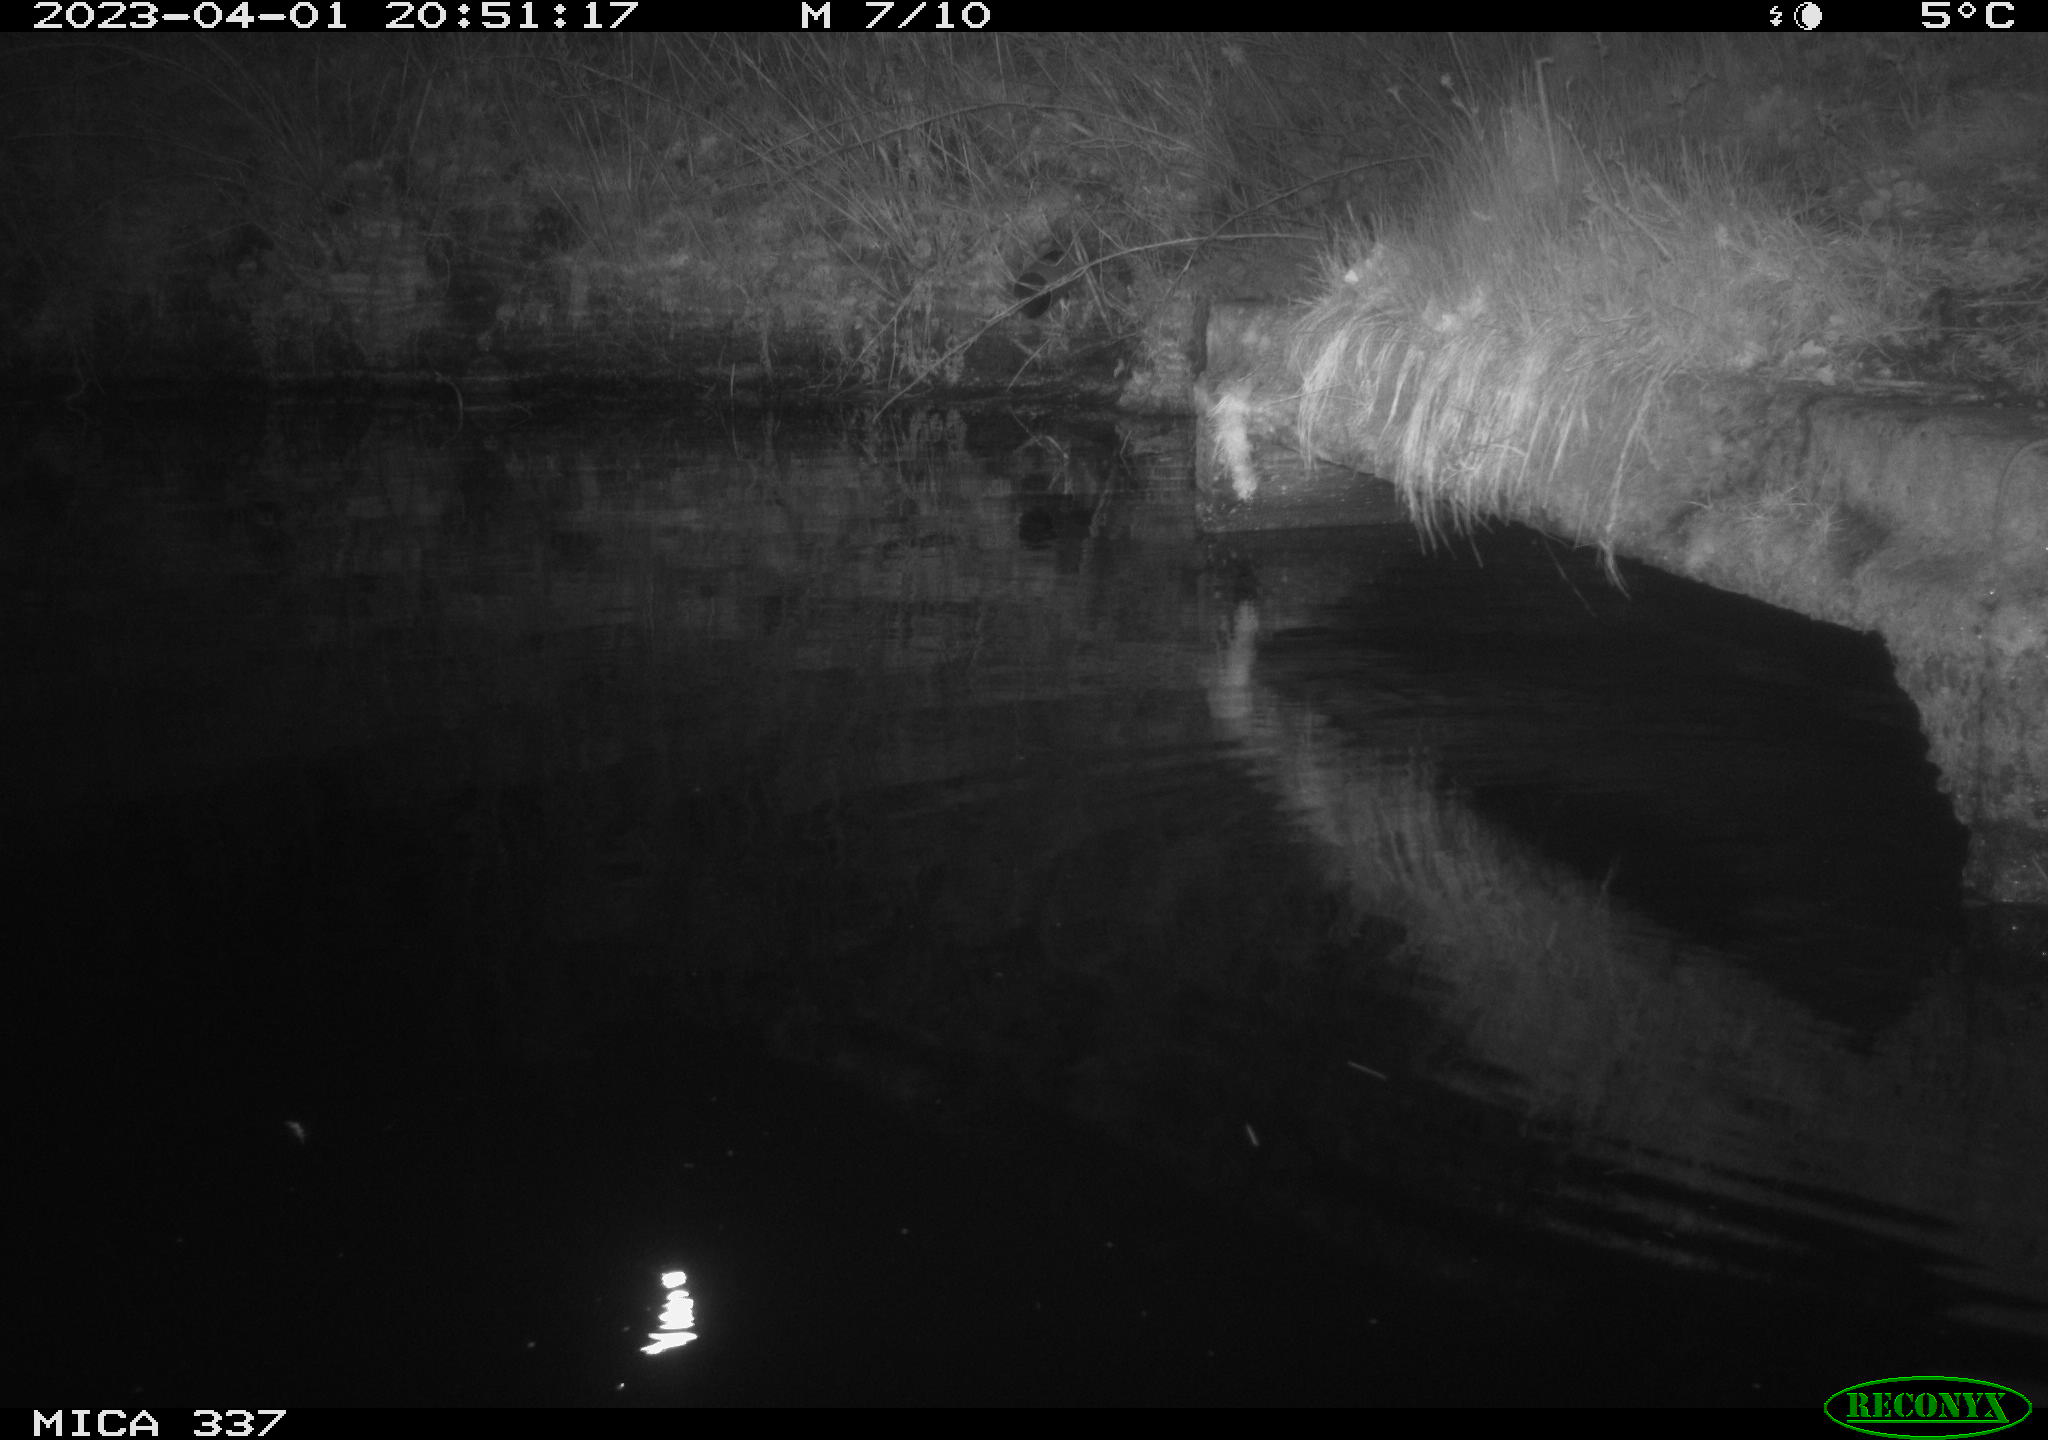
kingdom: Animalia
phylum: Chordata
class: Mammalia
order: Rodentia
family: Muridae
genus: Rattus
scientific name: Rattus norvegicus
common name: Brown rat
